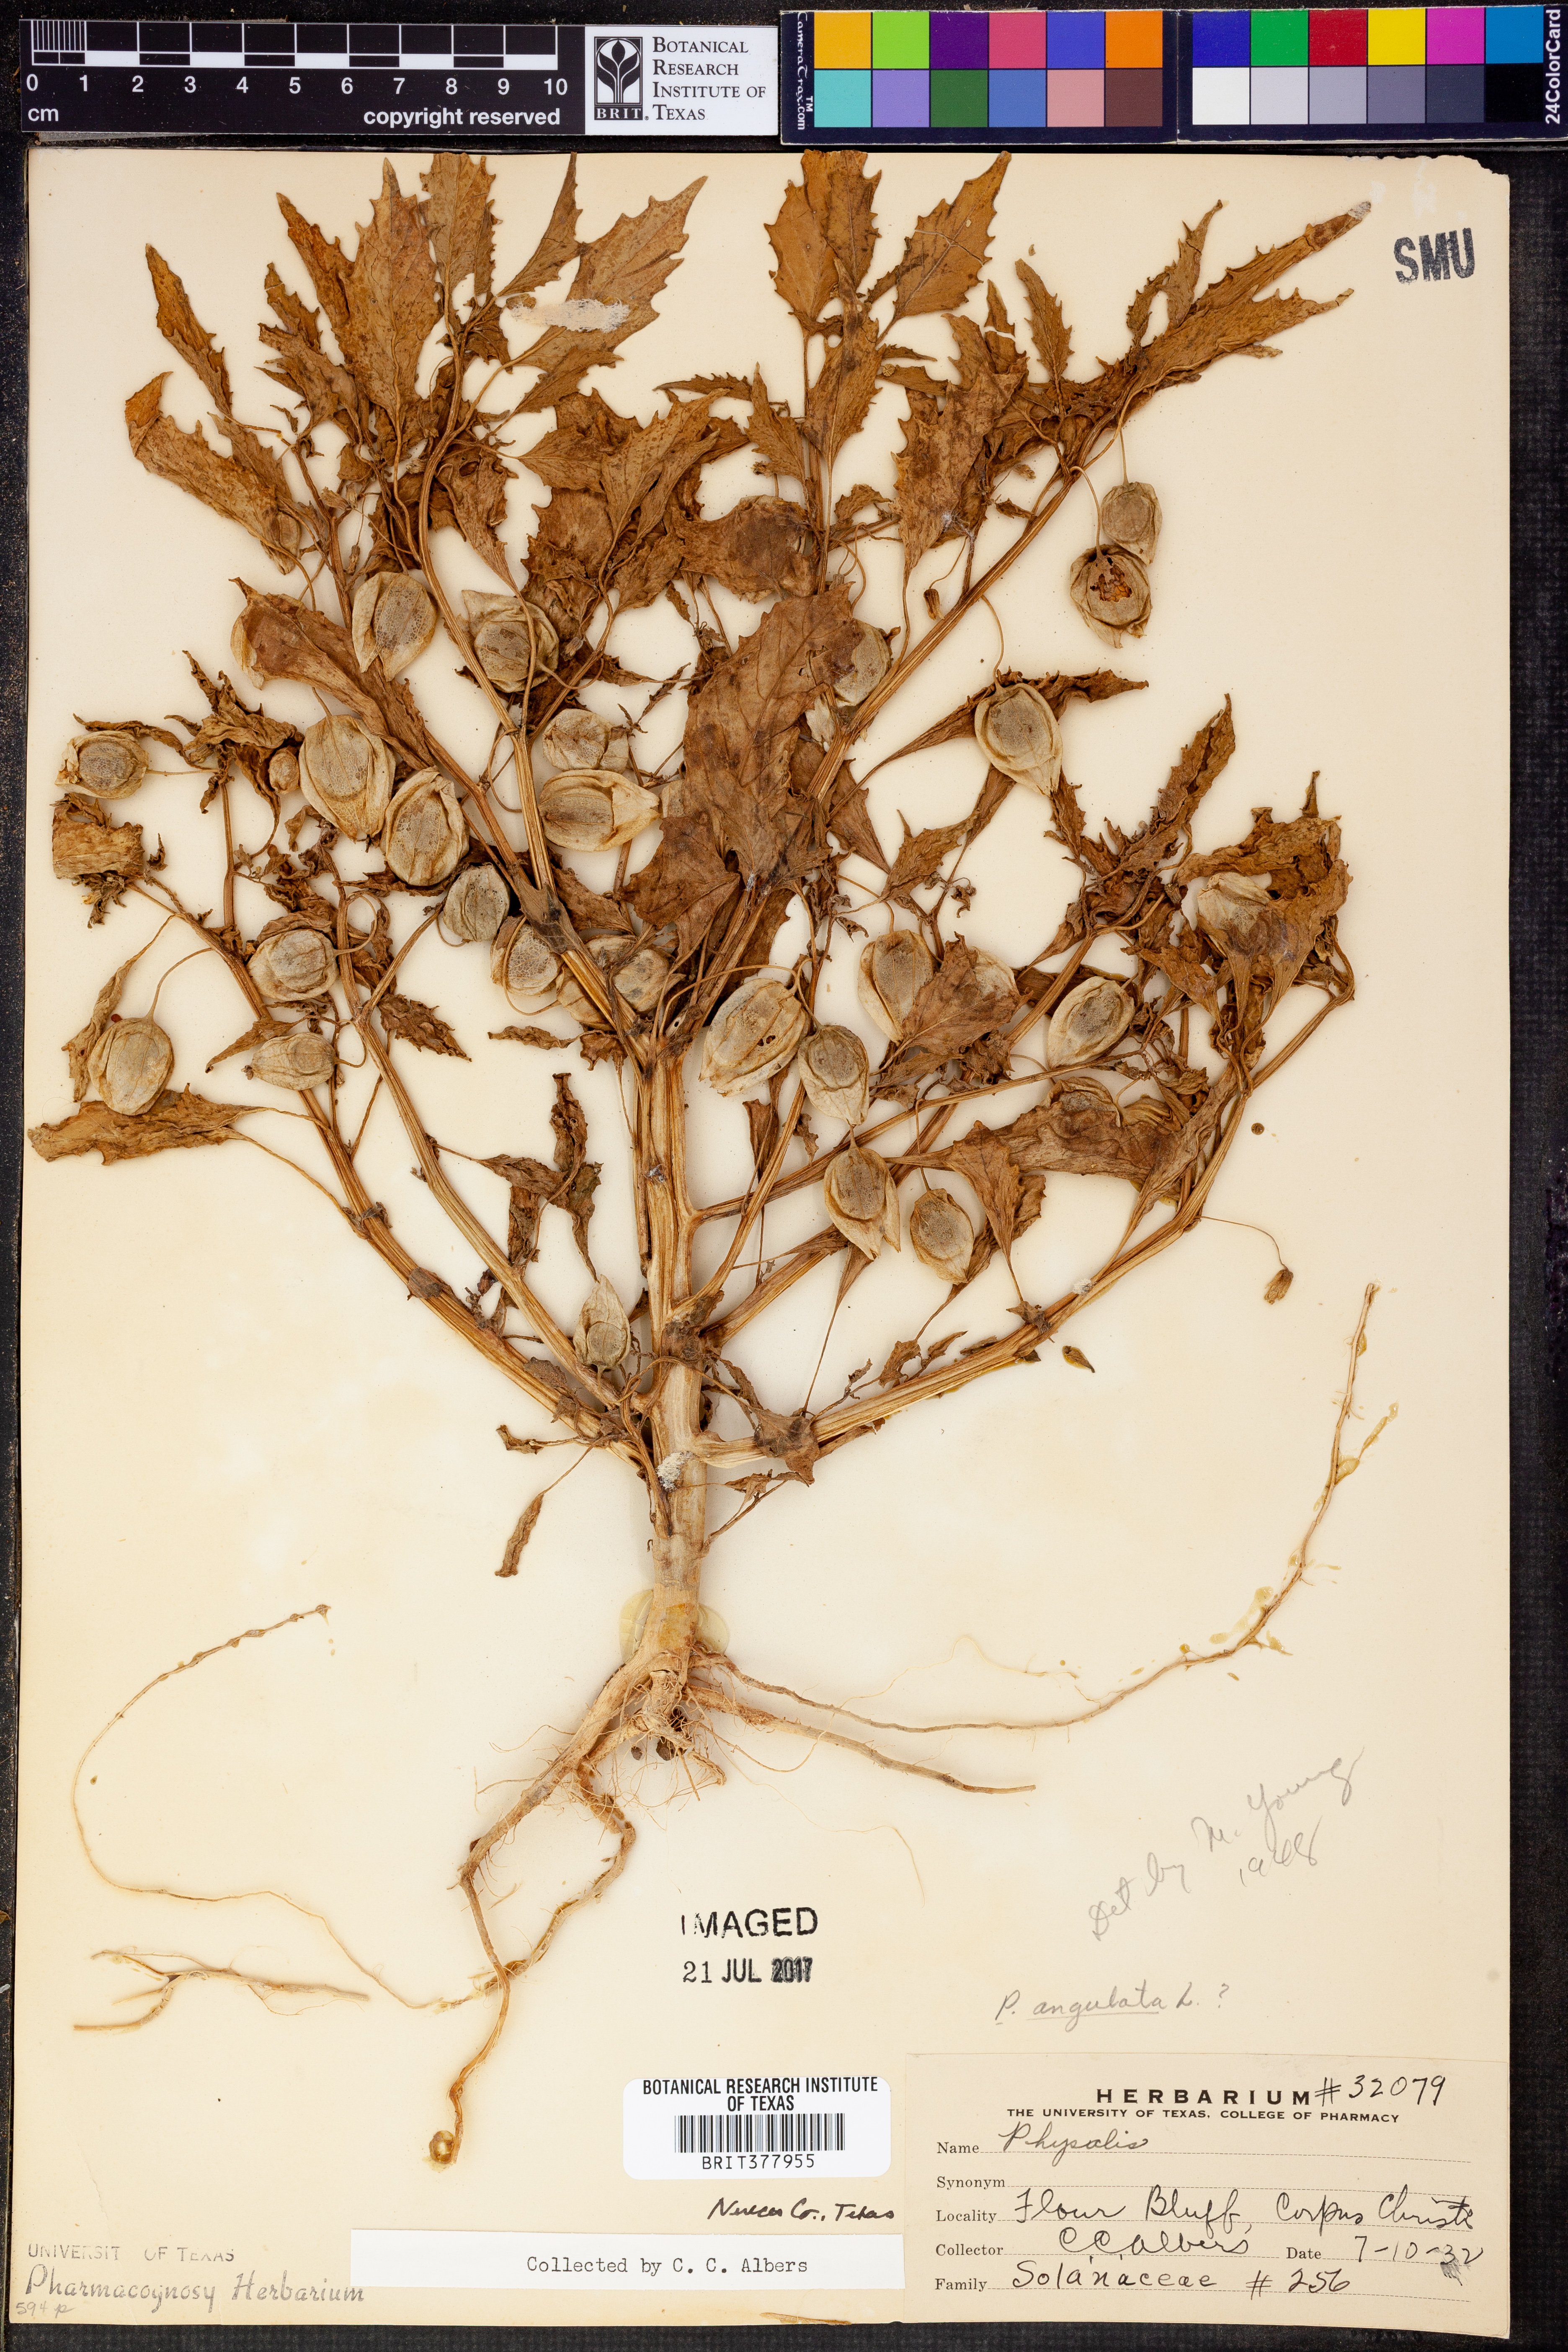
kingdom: Plantae
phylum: Tracheophyta
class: Magnoliopsida
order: Solanales
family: Solanaceae
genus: Physalis
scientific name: Physalis angulata
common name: Angular winter-cherry
